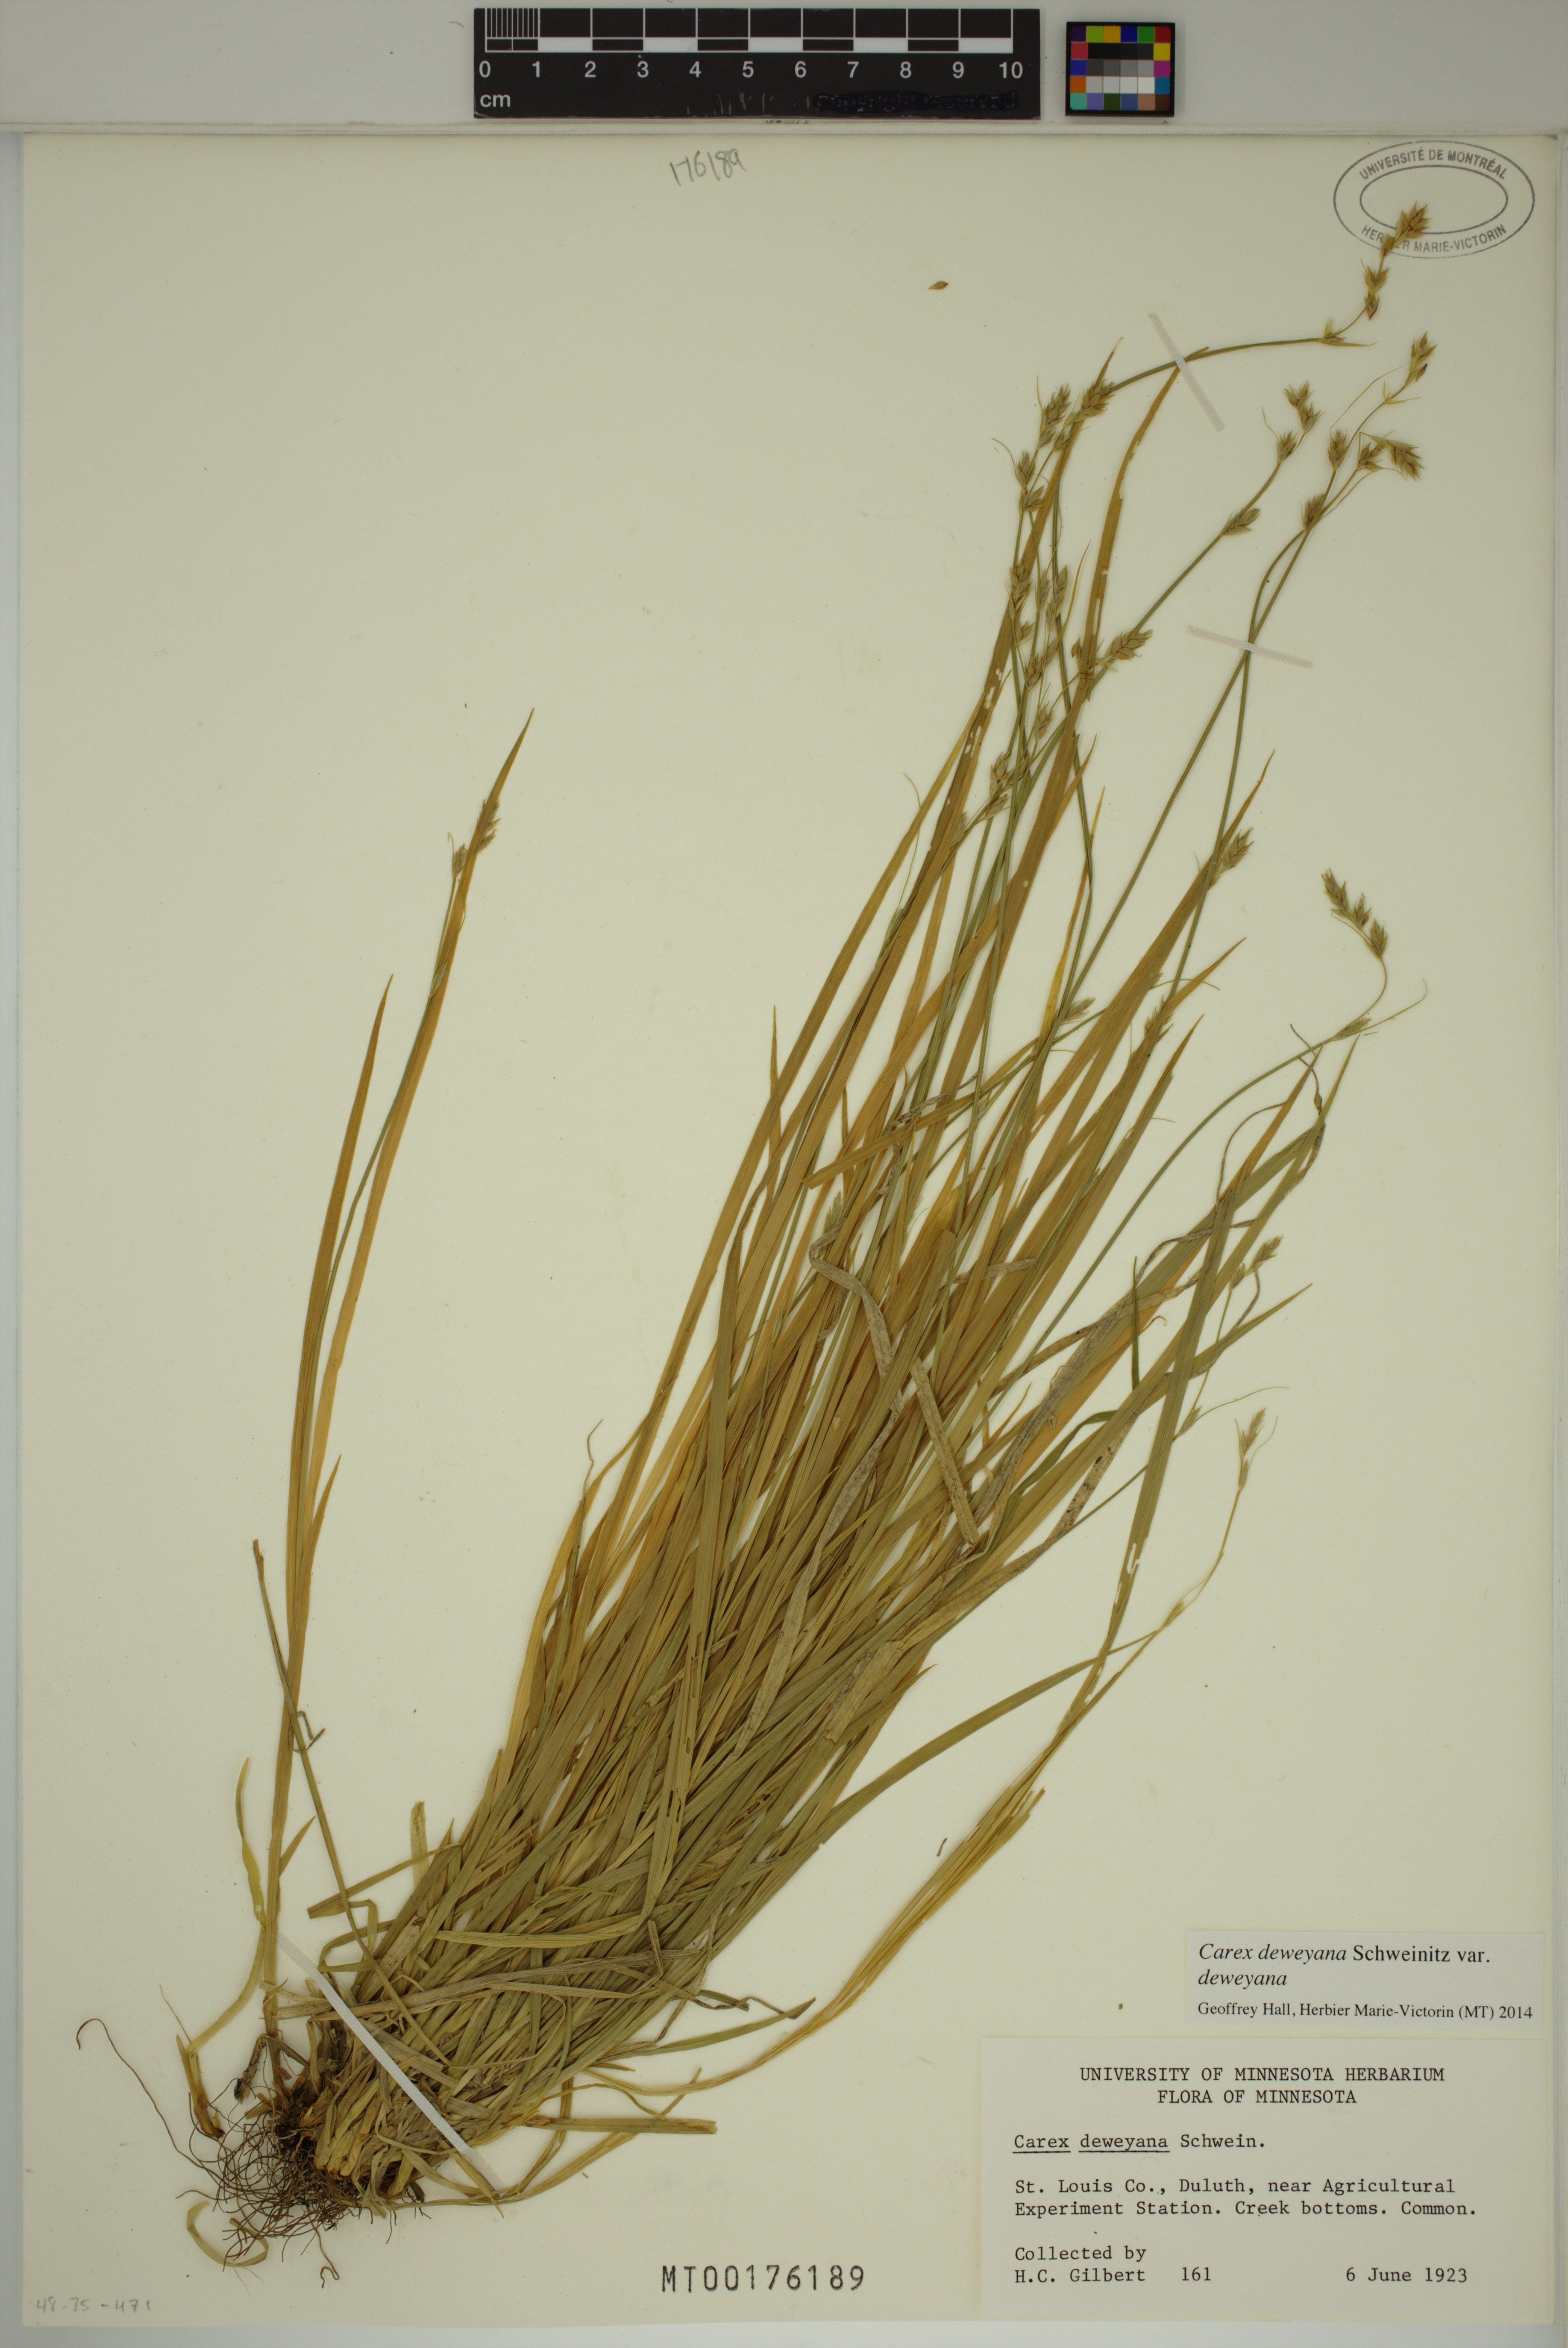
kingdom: Plantae
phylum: Tracheophyta
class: Liliopsida
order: Poales
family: Cyperaceae
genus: Carex
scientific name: Carex deweyana
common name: Dewey's sedge
